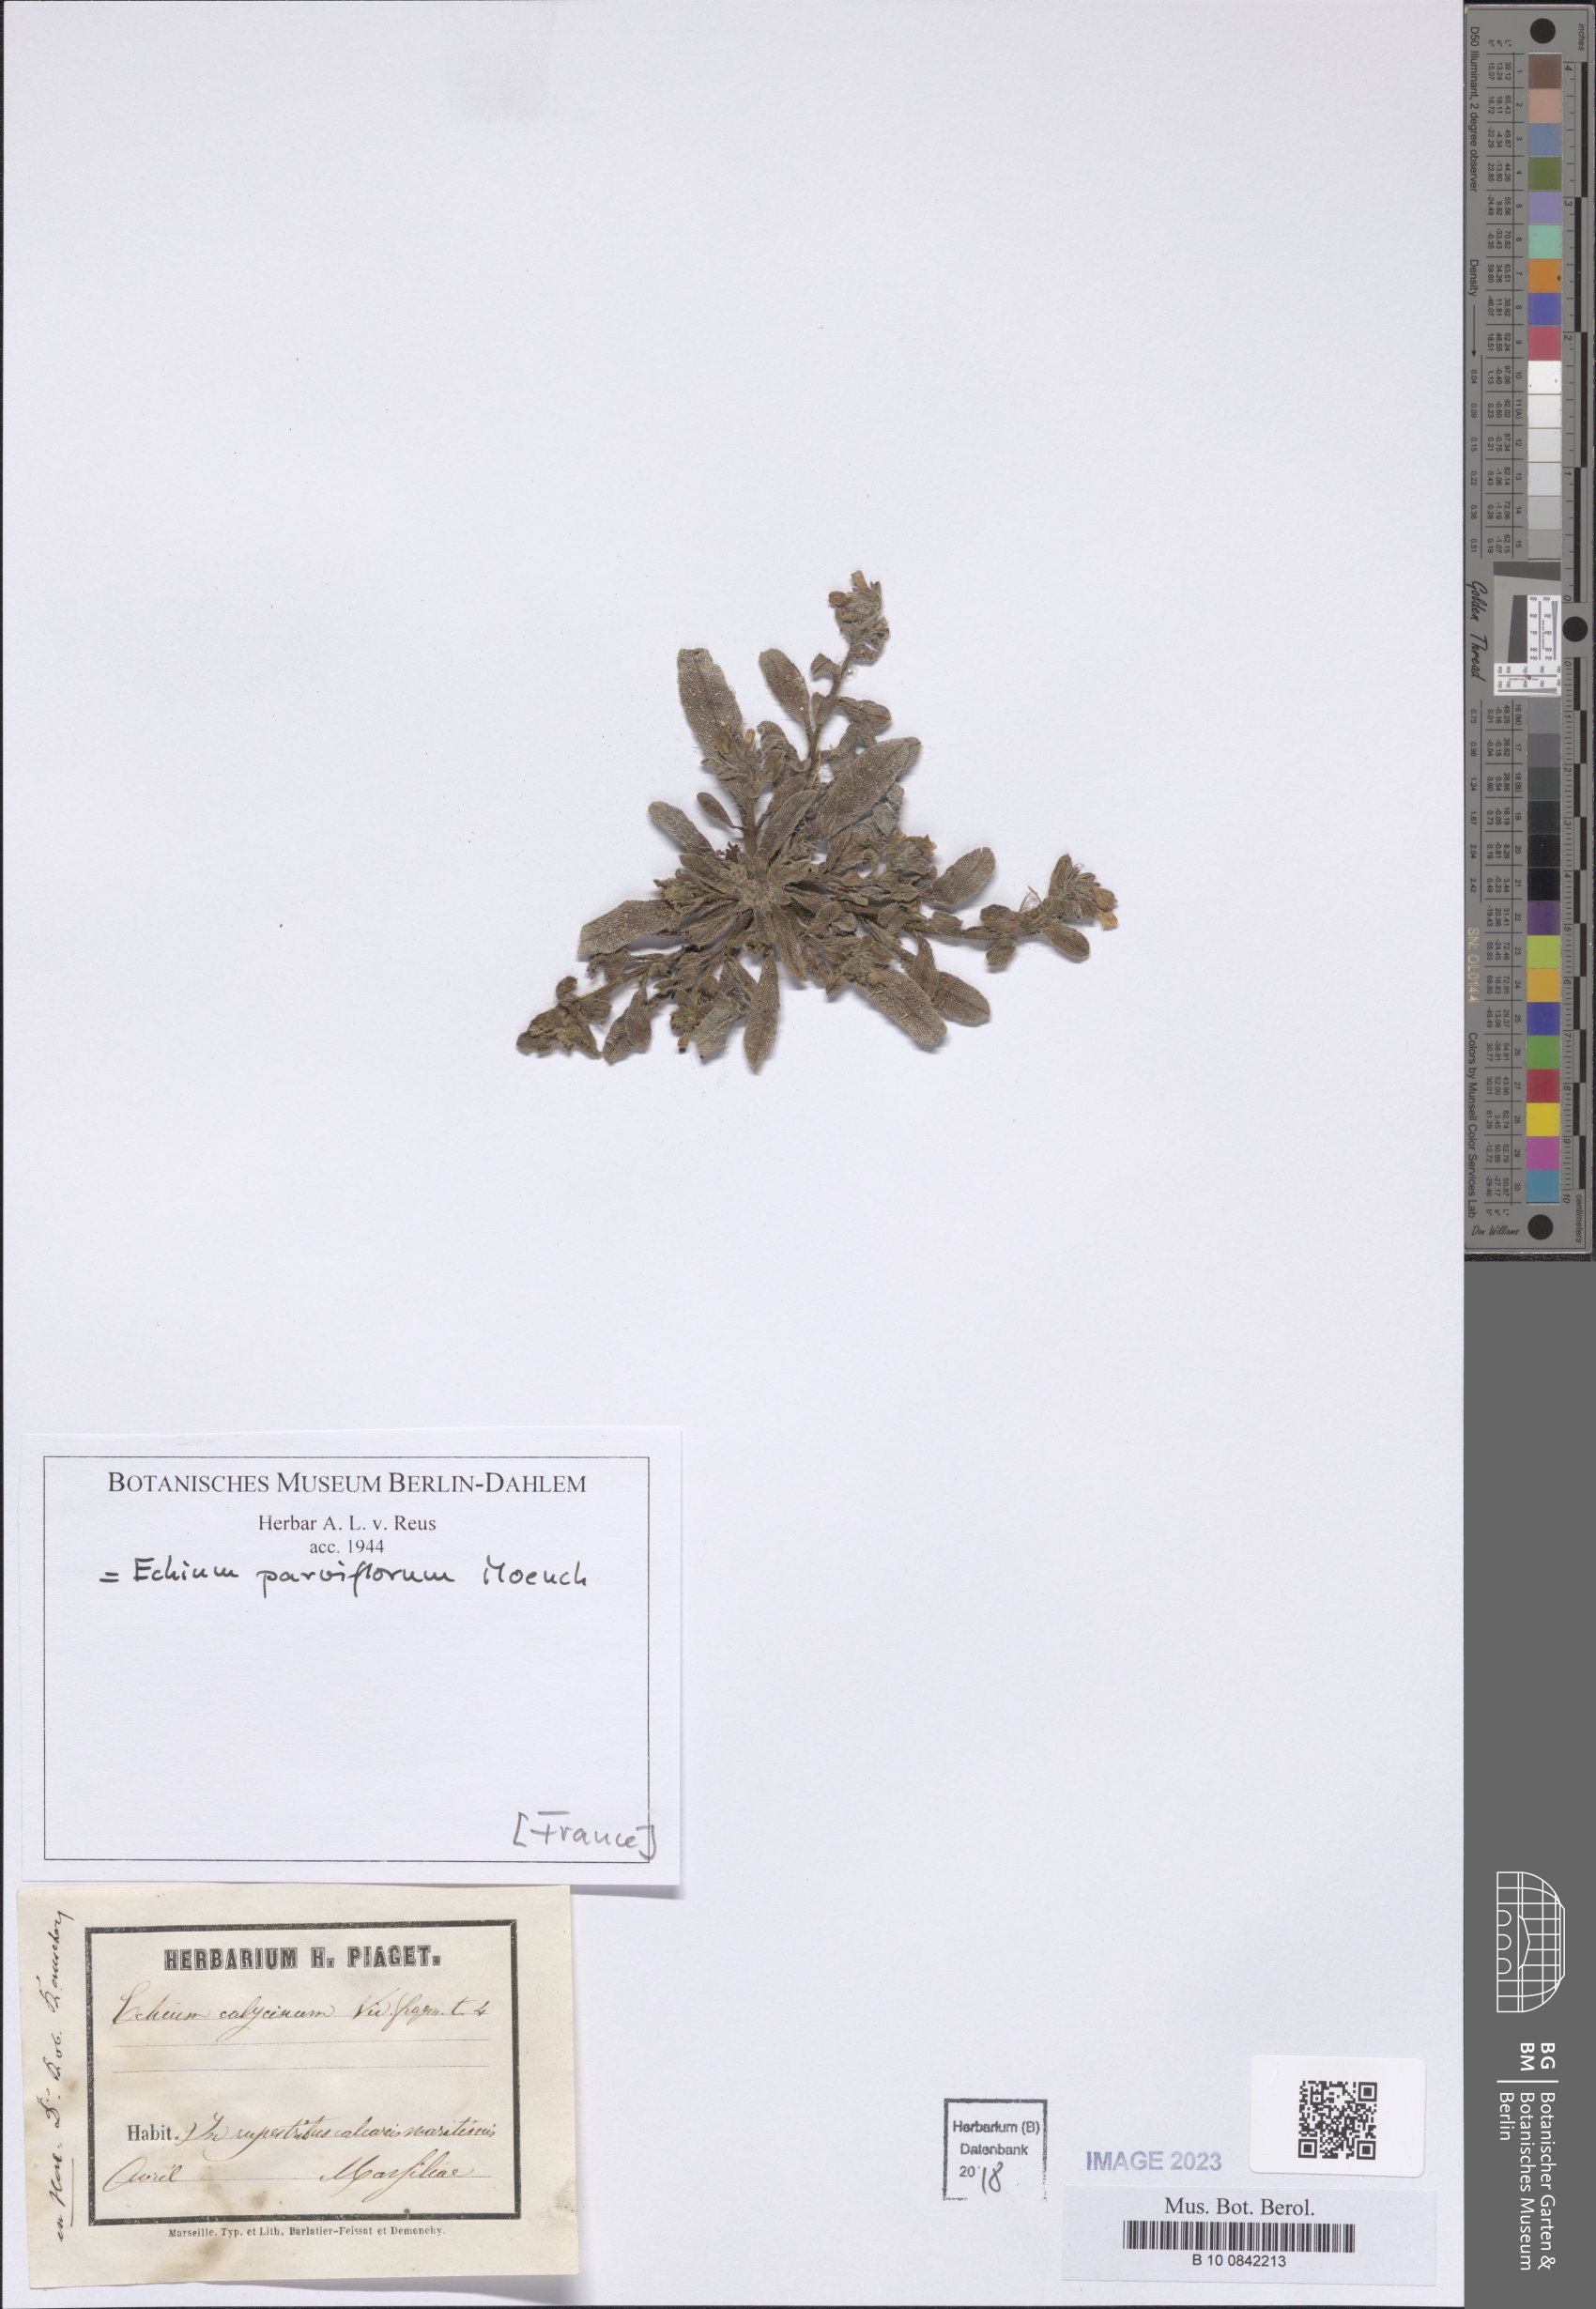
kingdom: Plantae
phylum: Tracheophyta
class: Magnoliopsida
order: Boraginales
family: Boraginaceae
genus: Echium
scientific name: Echium parviflorum
